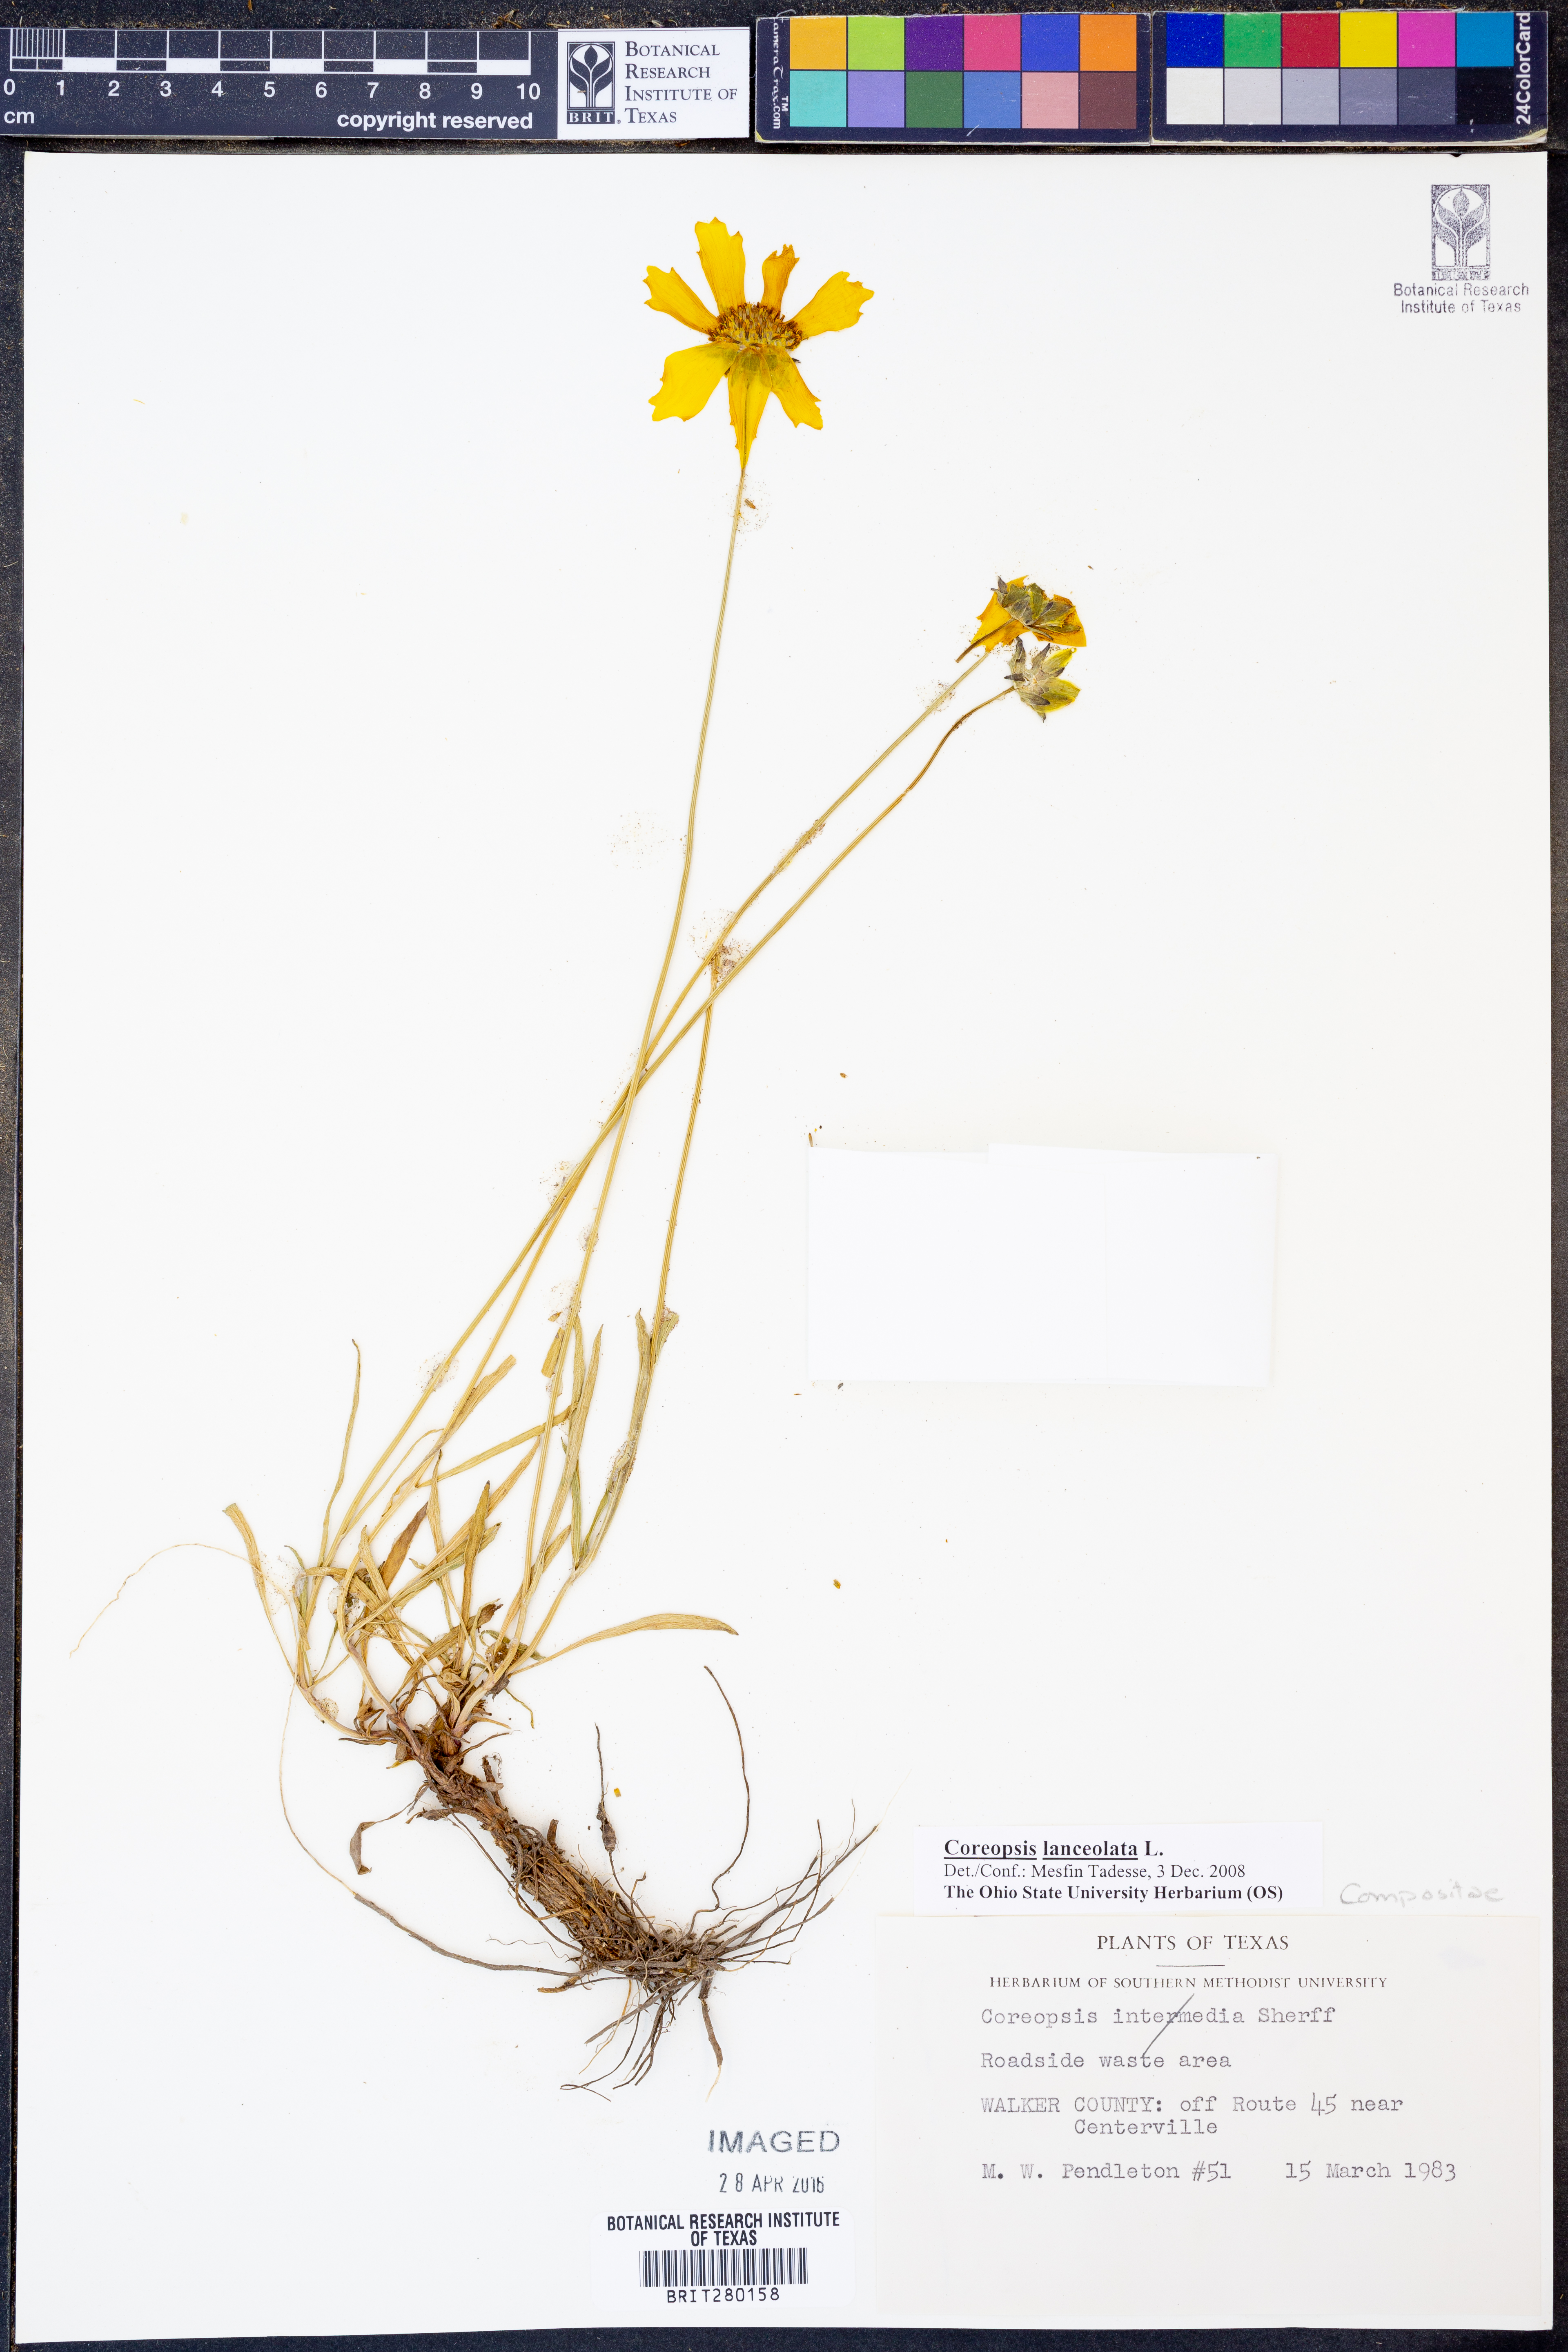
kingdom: Plantae
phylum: Tracheophyta
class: Magnoliopsida
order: Asterales
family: Asteraceae
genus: Coreopsis
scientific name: Coreopsis lanceolata
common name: Garden coreopsis
